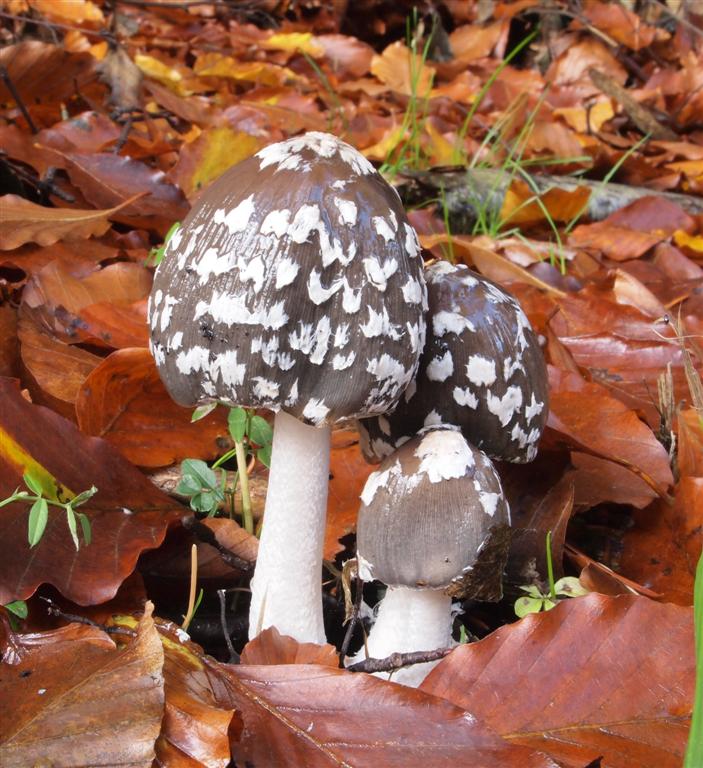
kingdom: Fungi
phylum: Basidiomycota
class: Agaricomycetes
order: Agaricales
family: Psathyrellaceae
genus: Coprinopsis
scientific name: Coprinopsis picacea
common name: skade-blækhat
